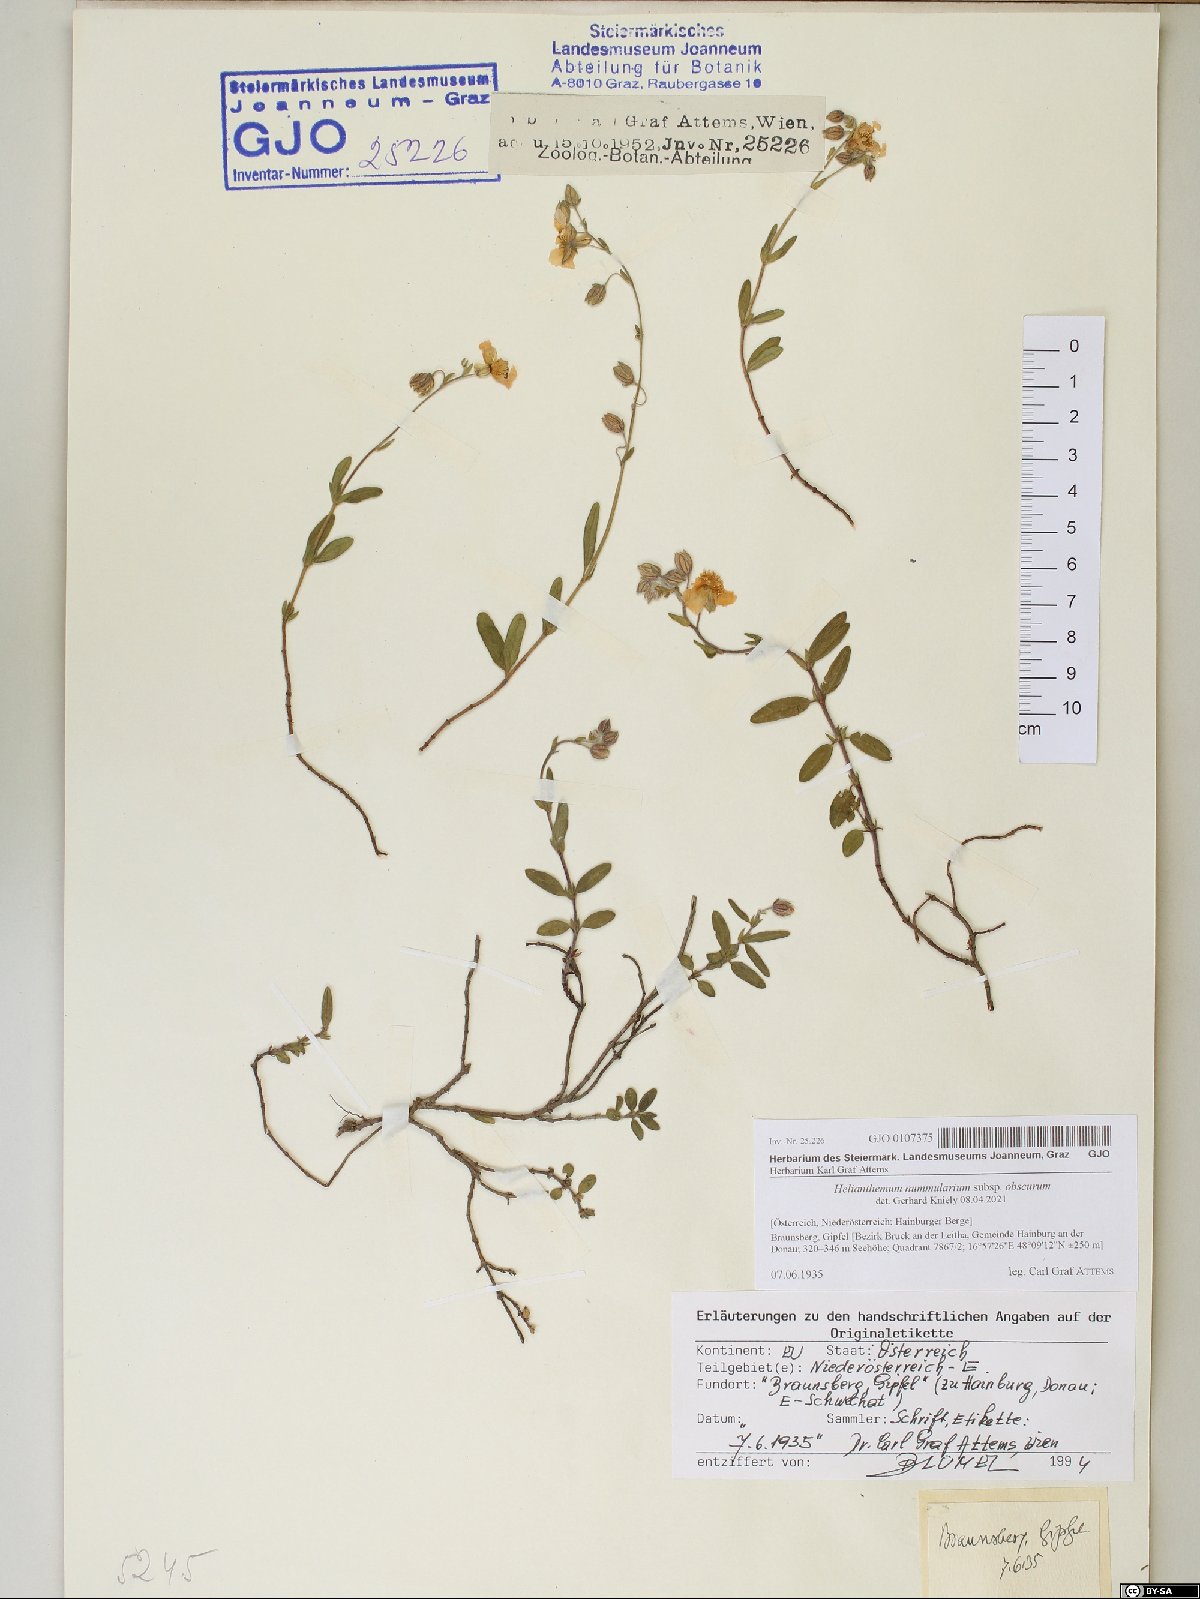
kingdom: Plantae
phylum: Tracheophyta
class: Magnoliopsida
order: Malvales
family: Cistaceae
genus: Helianthemum
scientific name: Helianthemum nummularium
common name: Common rock-rose
